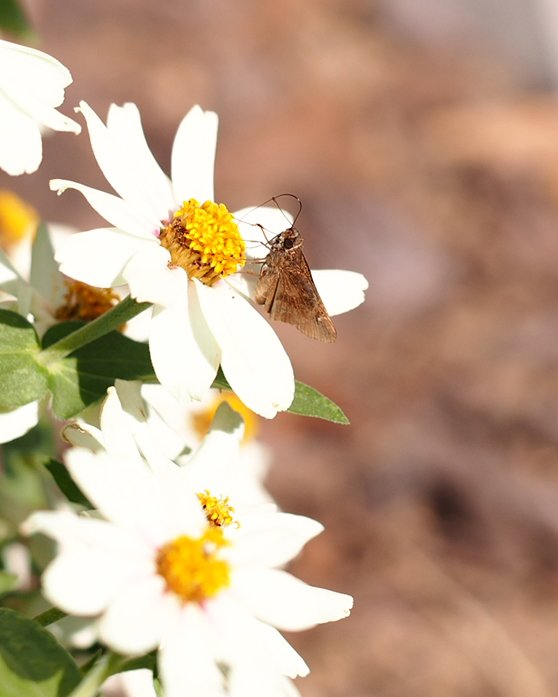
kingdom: Animalia
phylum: Arthropoda
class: Insecta
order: Lepidoptera
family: Hesperiidae
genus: Lerema
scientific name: Lerema accius
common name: Clouded Skipper
